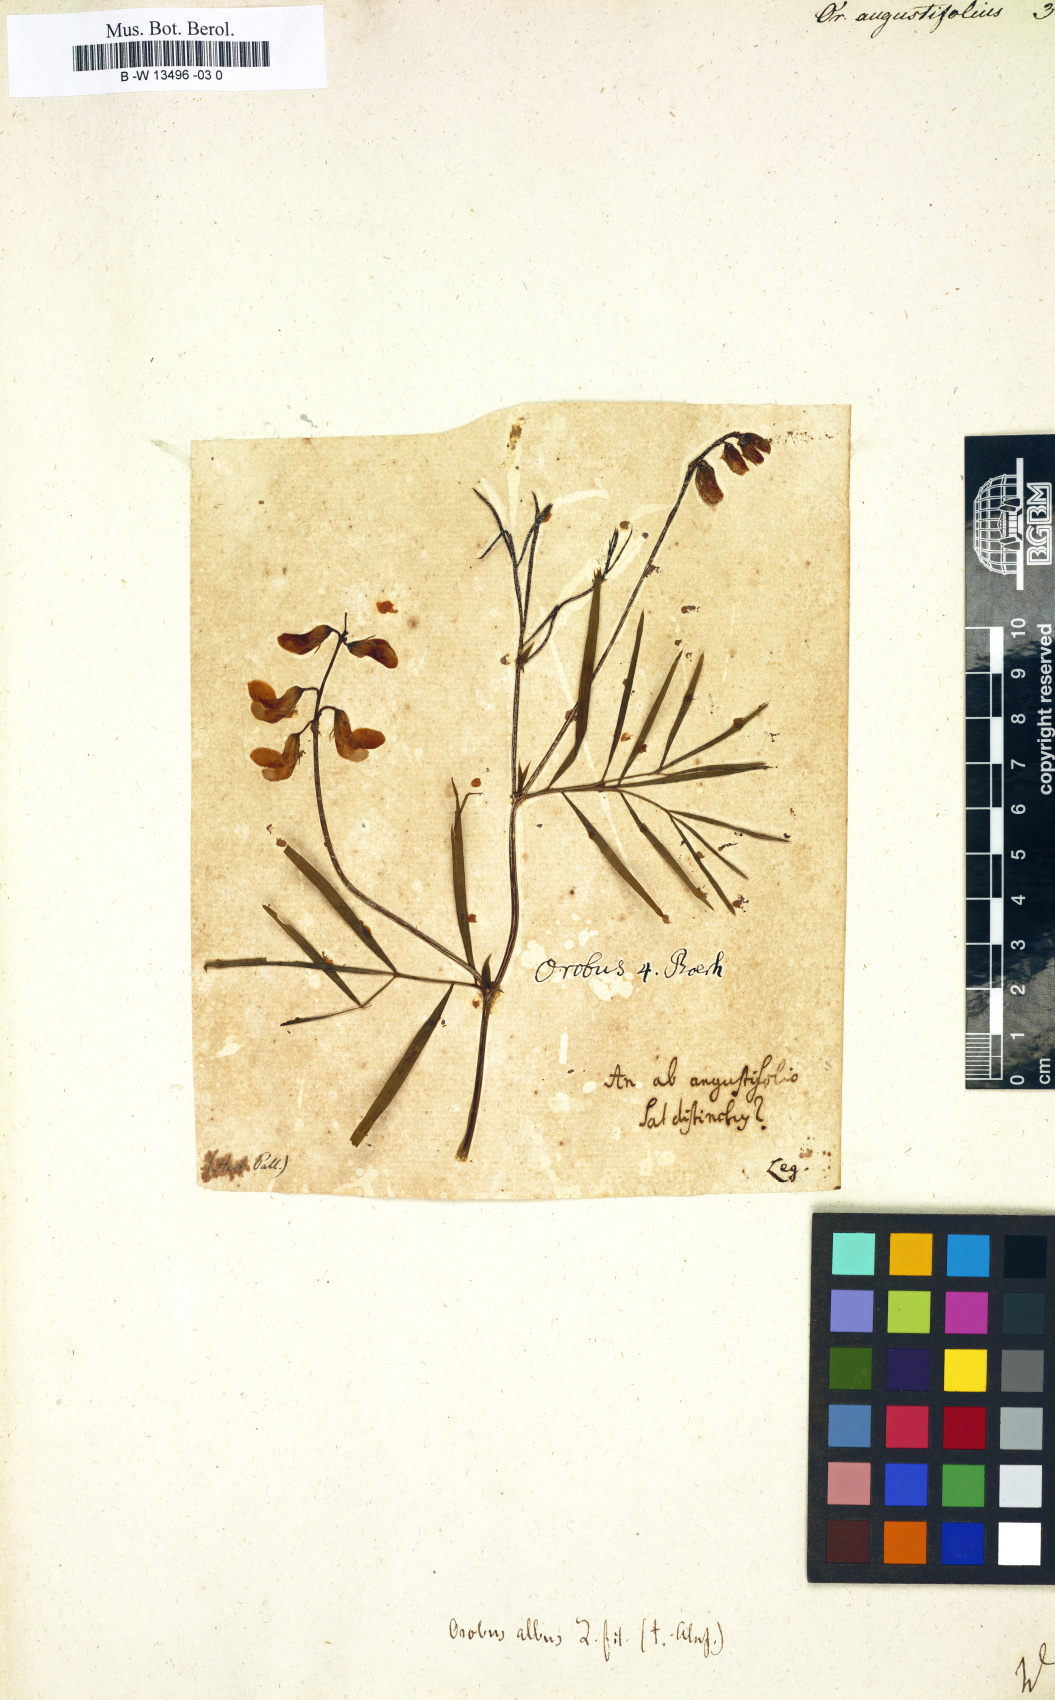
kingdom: Plantae
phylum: Tracheophyta
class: Magnoliopsida
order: Fabales
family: Fabaceae
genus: Lathyrus
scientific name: Lathyrus
